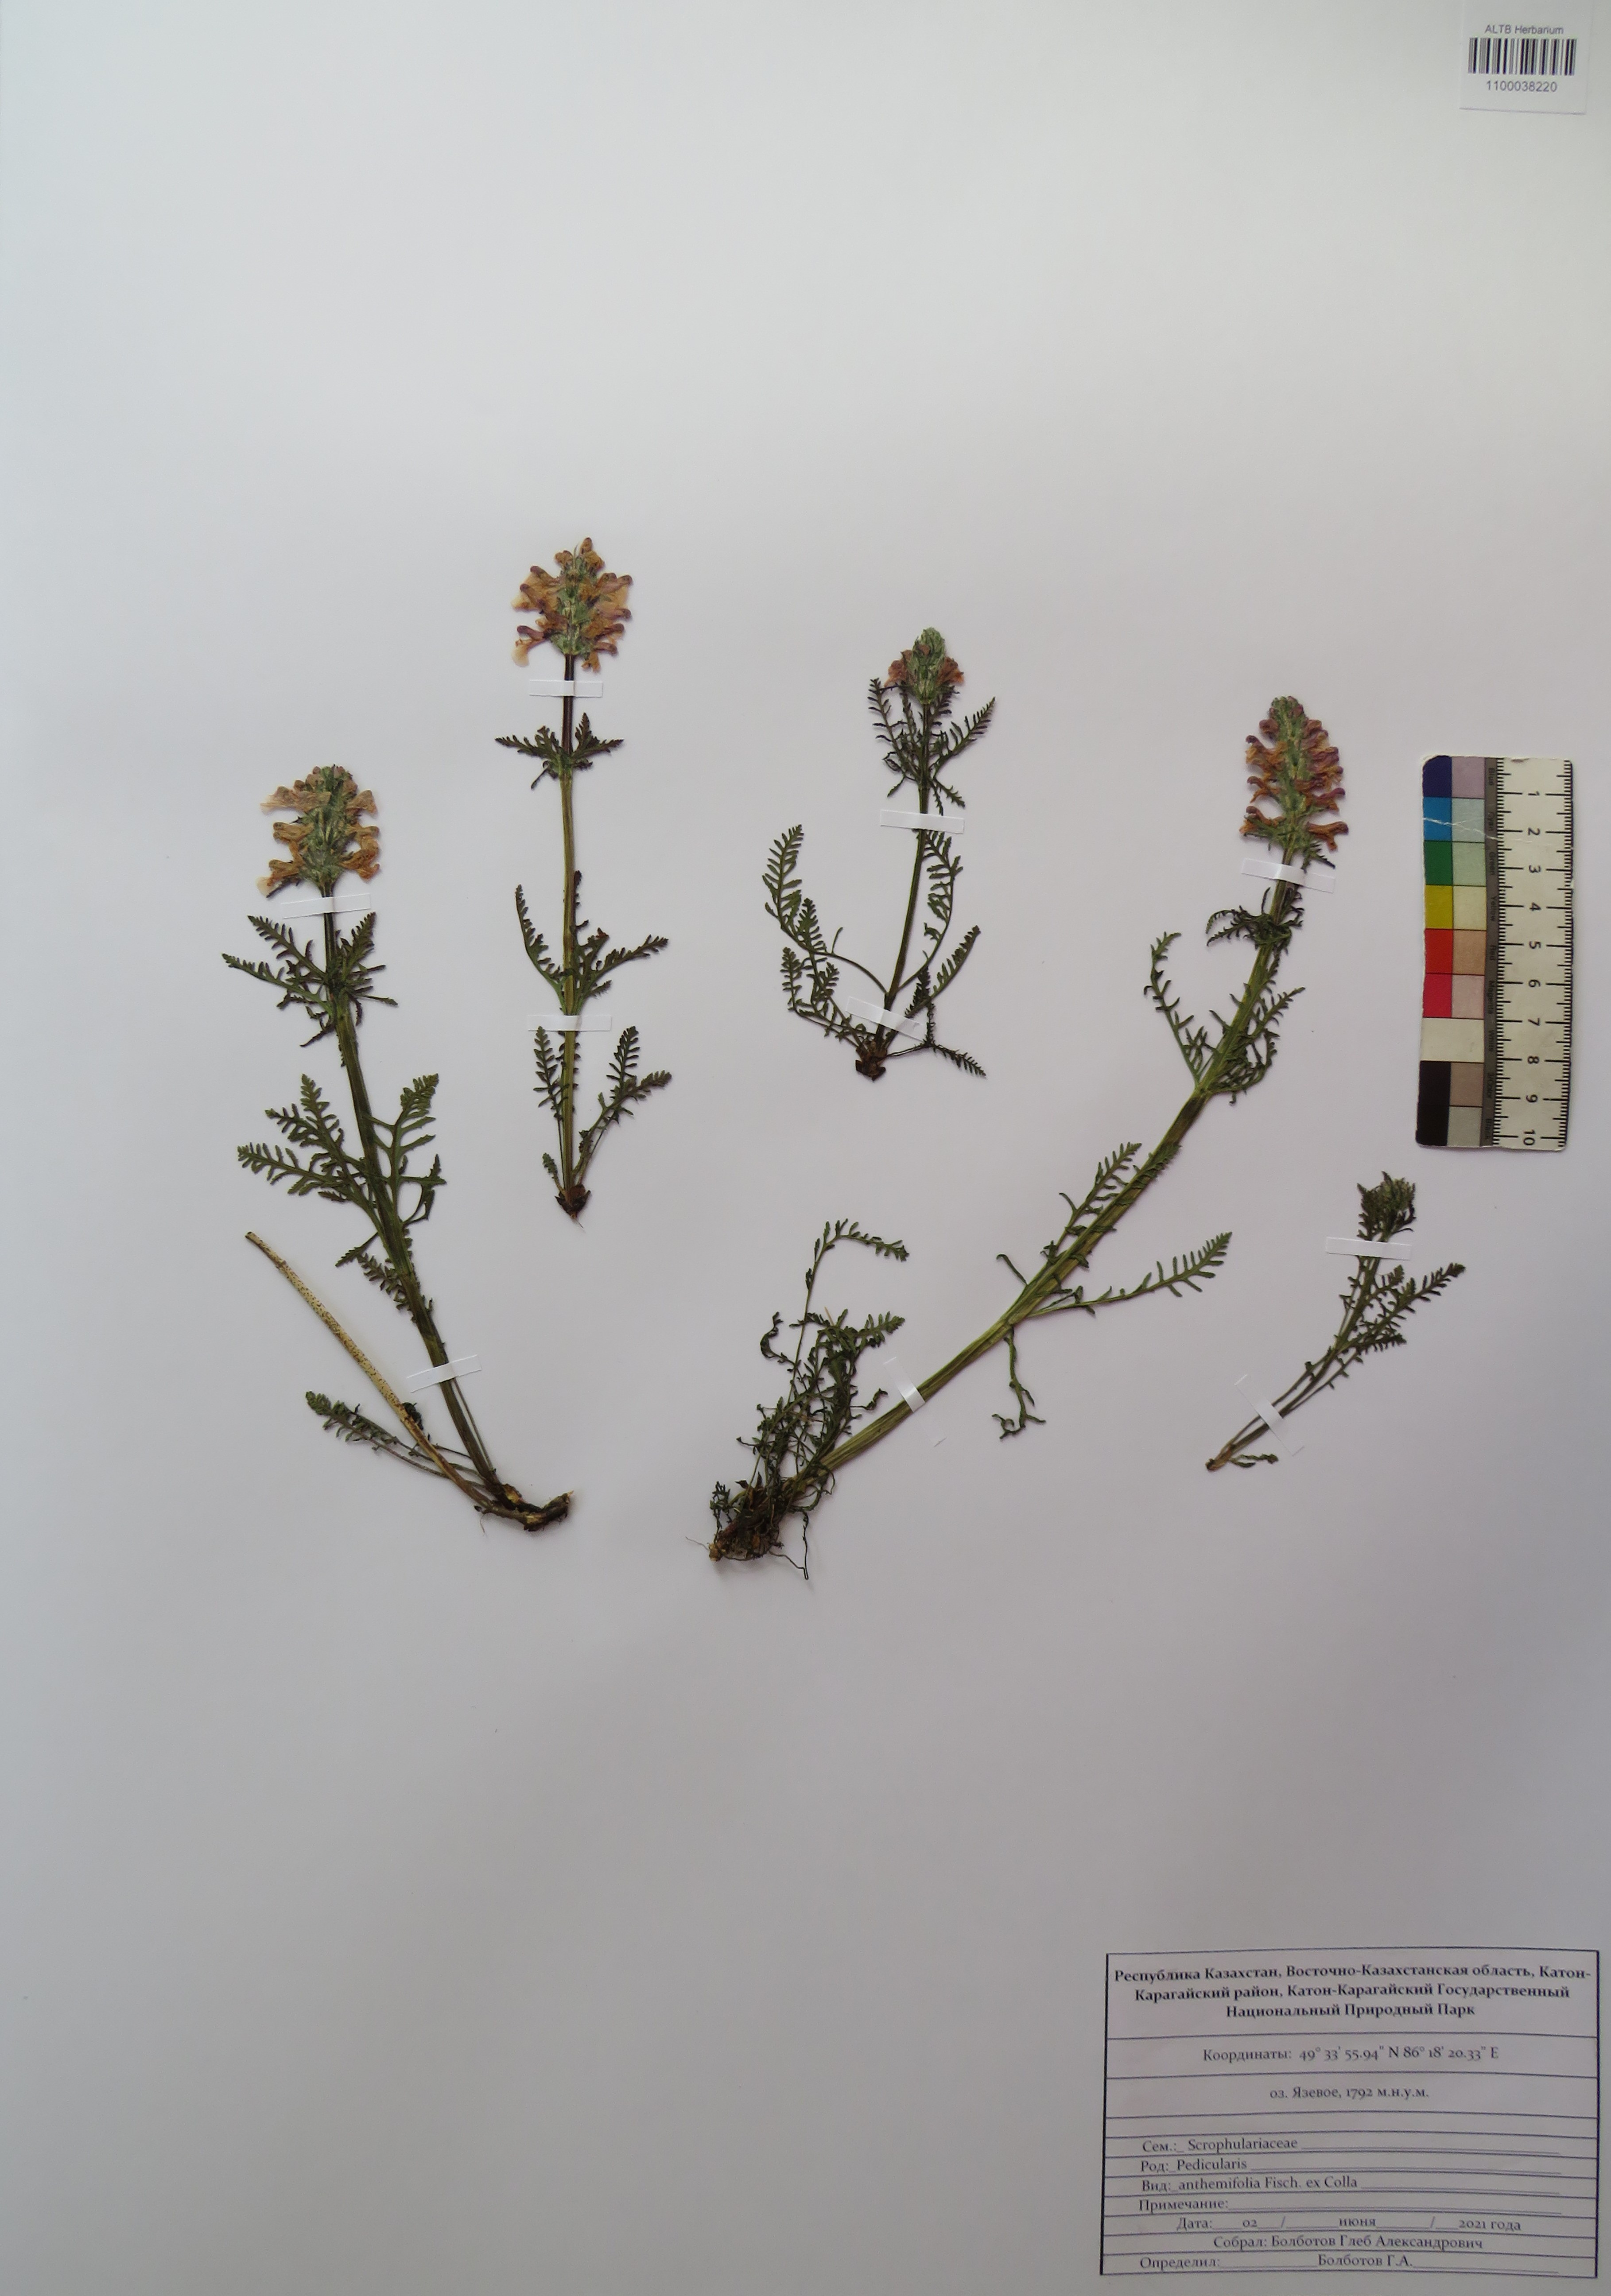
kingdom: Plantae
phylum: Tracheophyta
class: Magnoliopsida
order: Lamiales
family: Orobanchaceae
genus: Pedicularis
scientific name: Pedicularis anthemifolia
